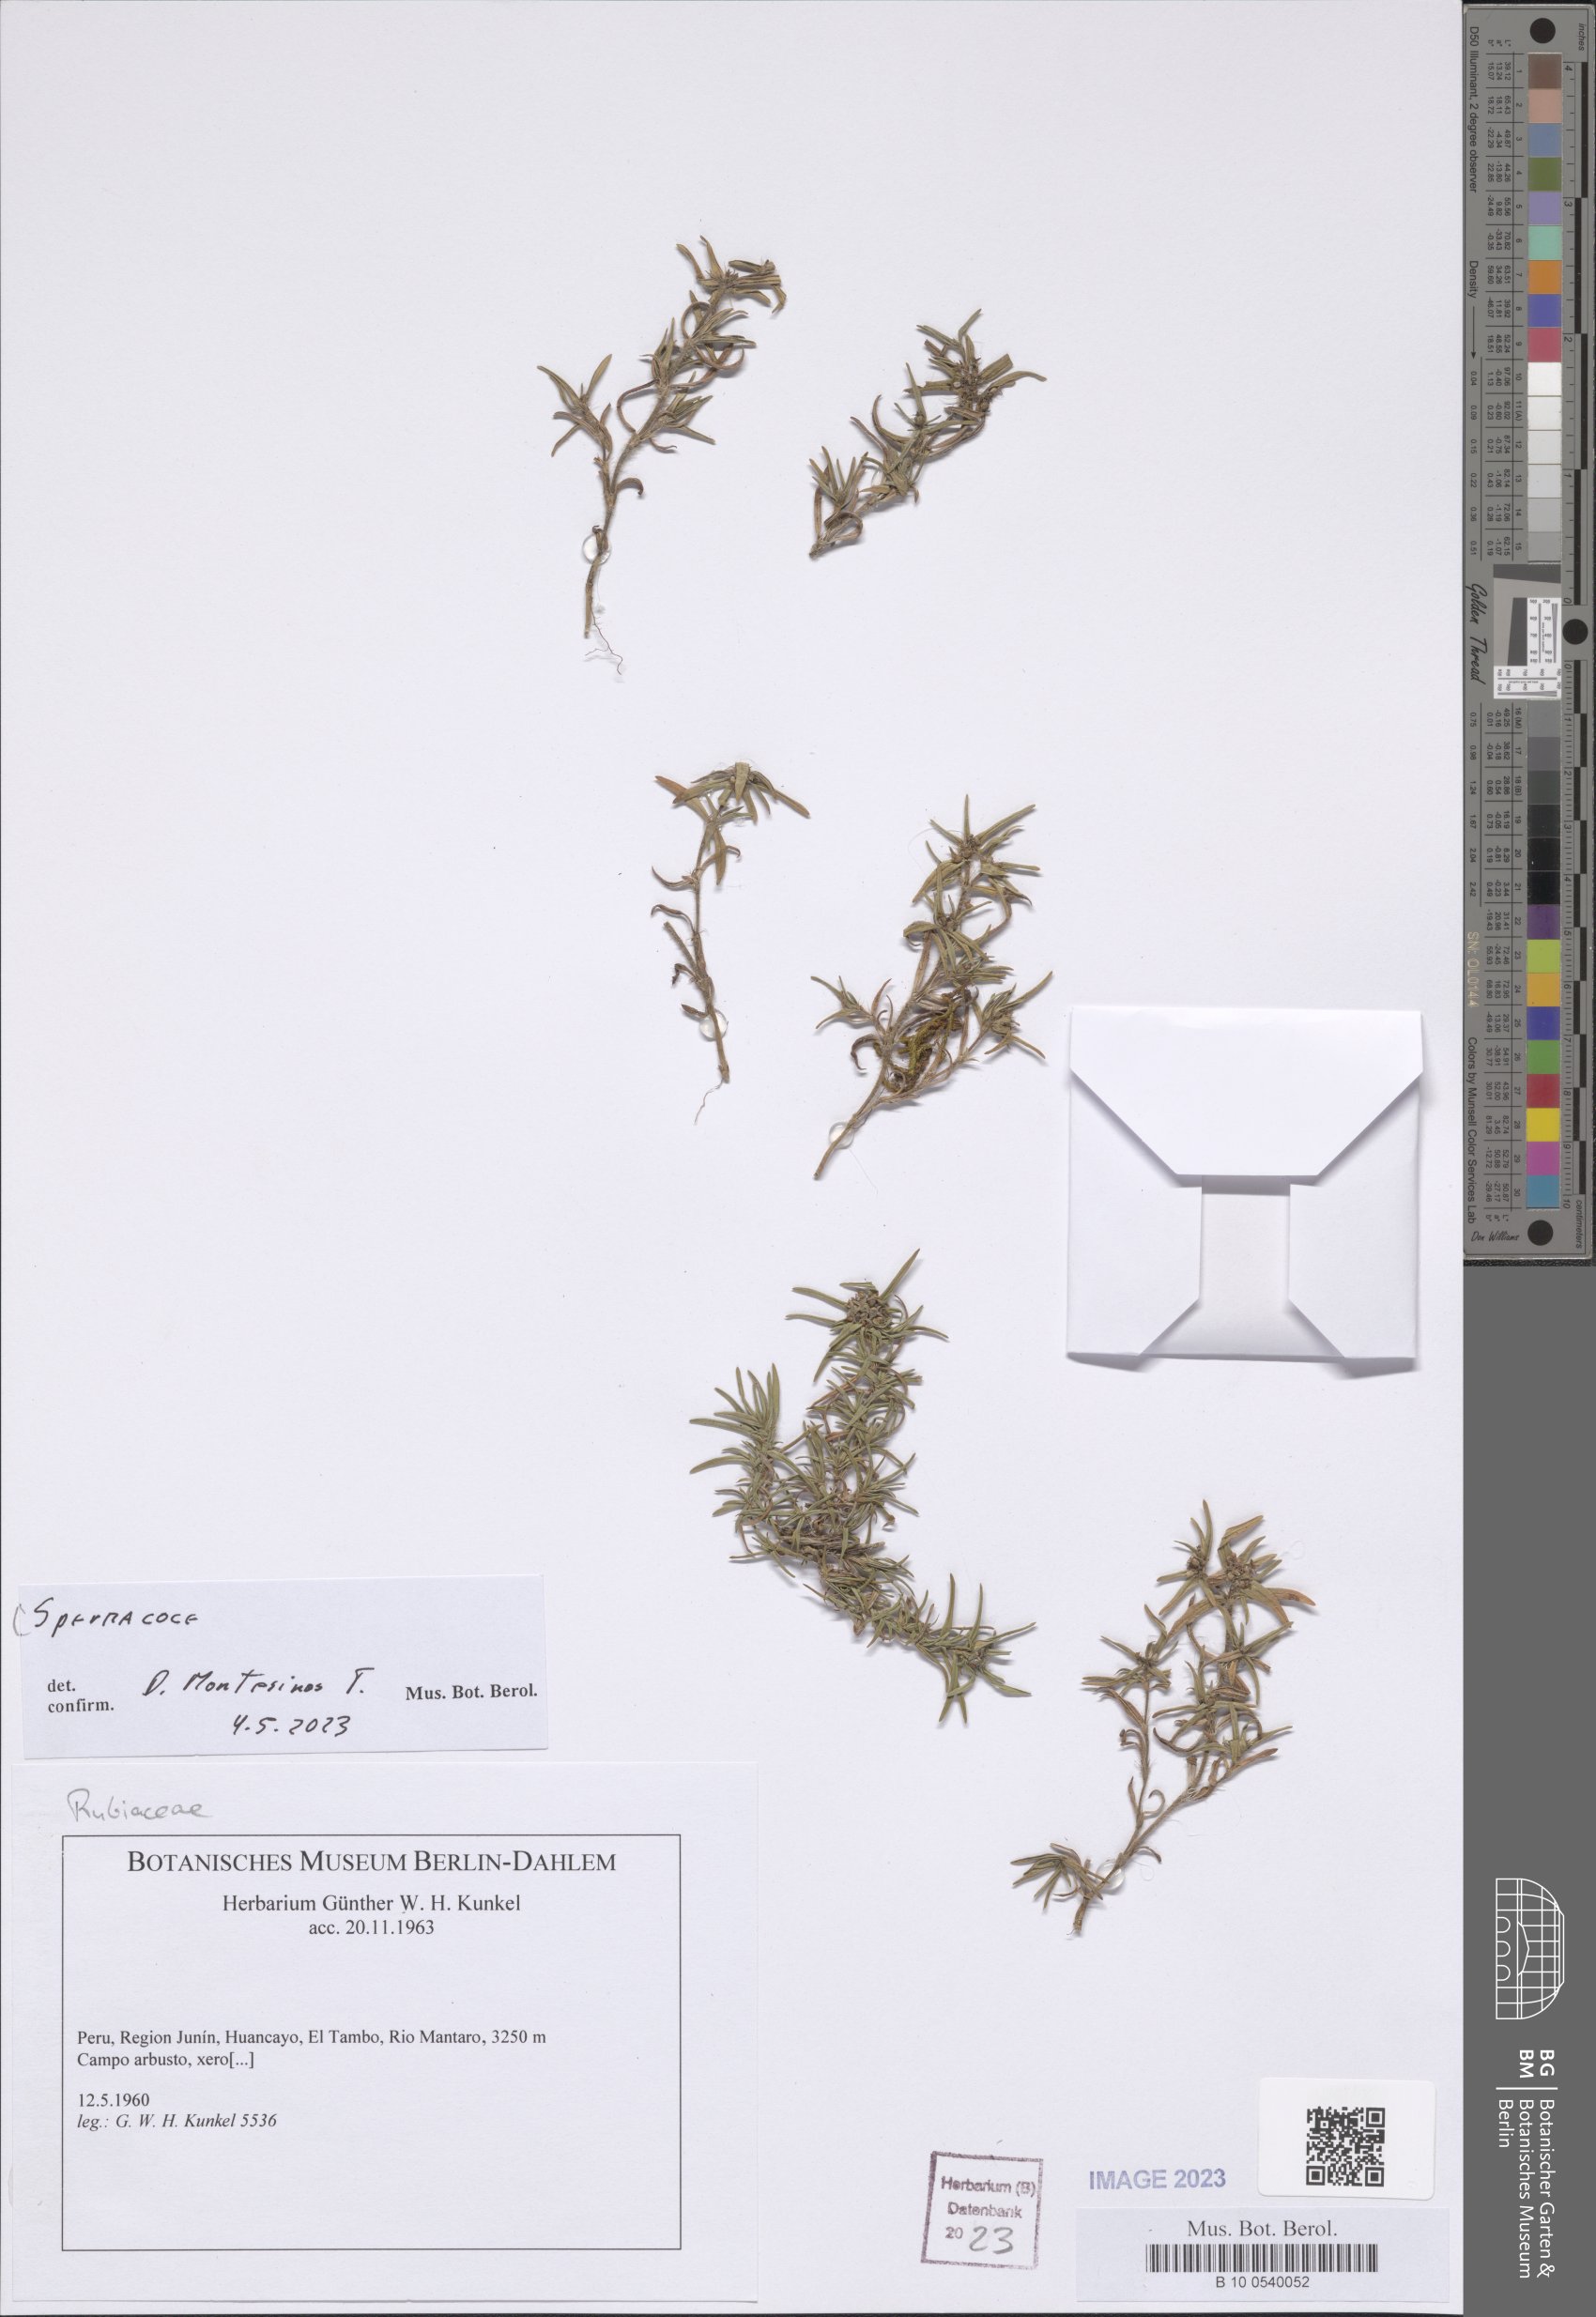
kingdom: Plantae
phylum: Tracheophyta
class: Magnoliopsida
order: Gentianales
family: Rubiaceae
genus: Spermacoce
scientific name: Spermacoce
